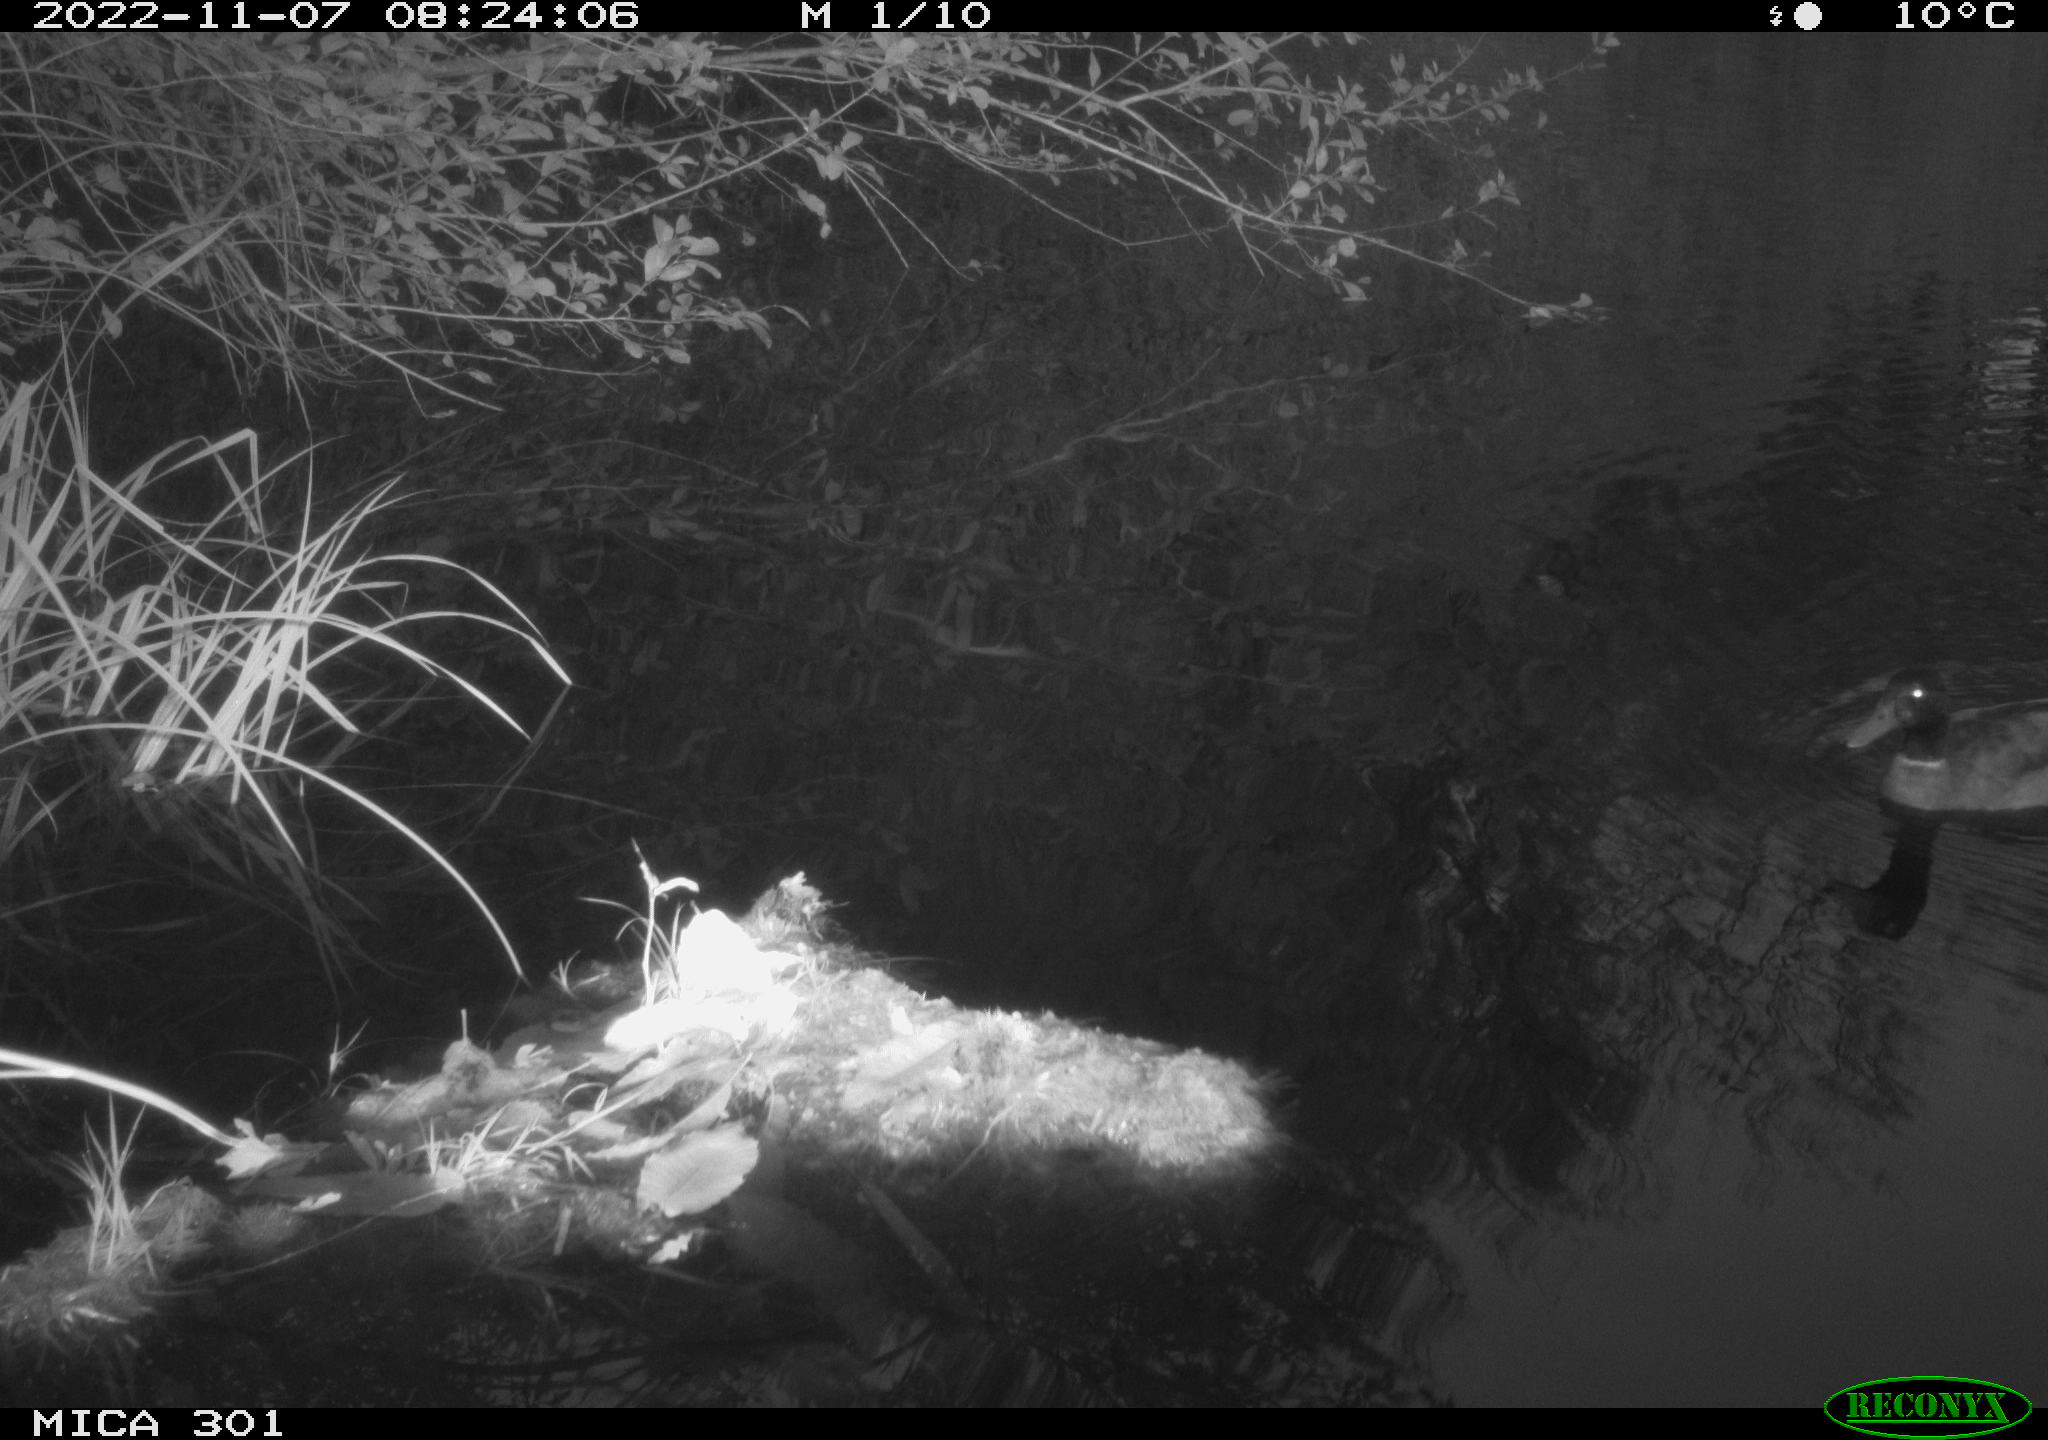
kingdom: Animalia
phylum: Chordata
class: Aves
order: Anseriformes
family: Anatidae
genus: Anas
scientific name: Anas
